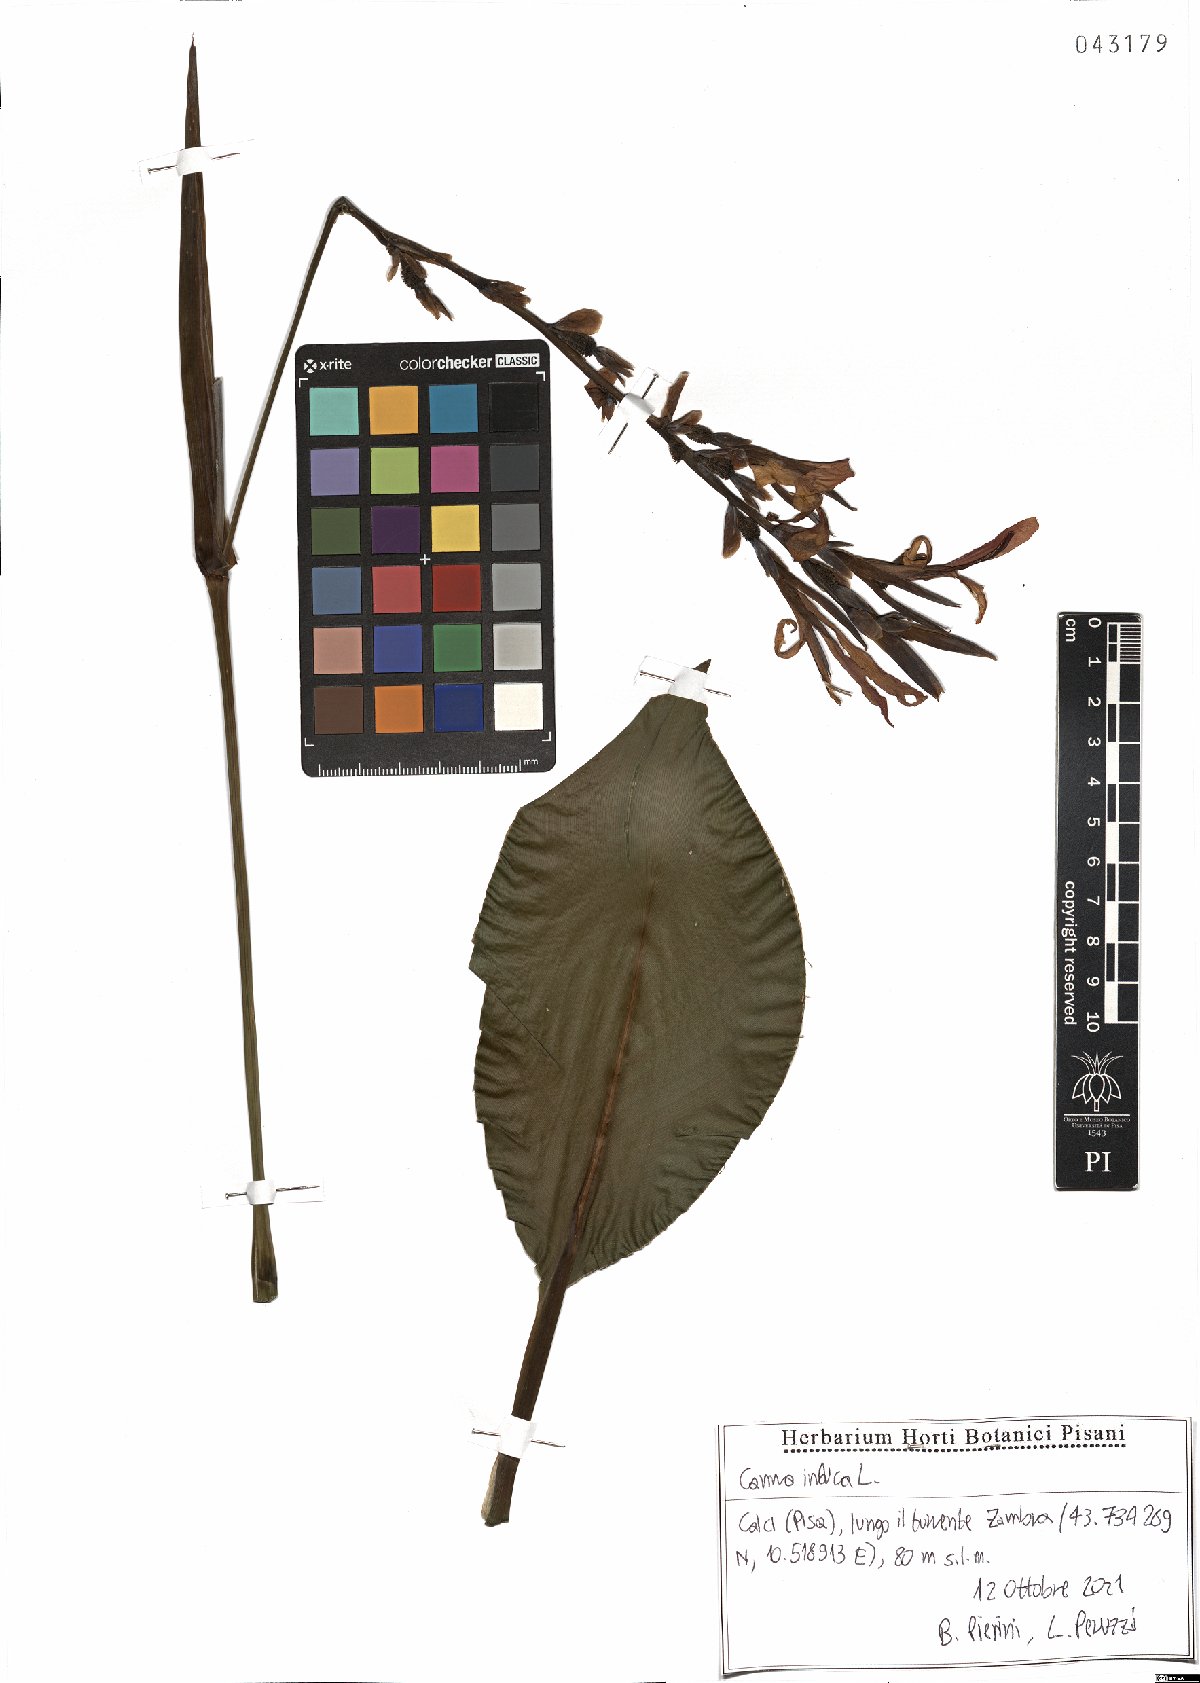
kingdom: Plantae
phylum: Tracheophyta
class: Liliopsida
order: Zingiberales
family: Cannaceae
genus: Canna
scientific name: Canna indica
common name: Indian shot
